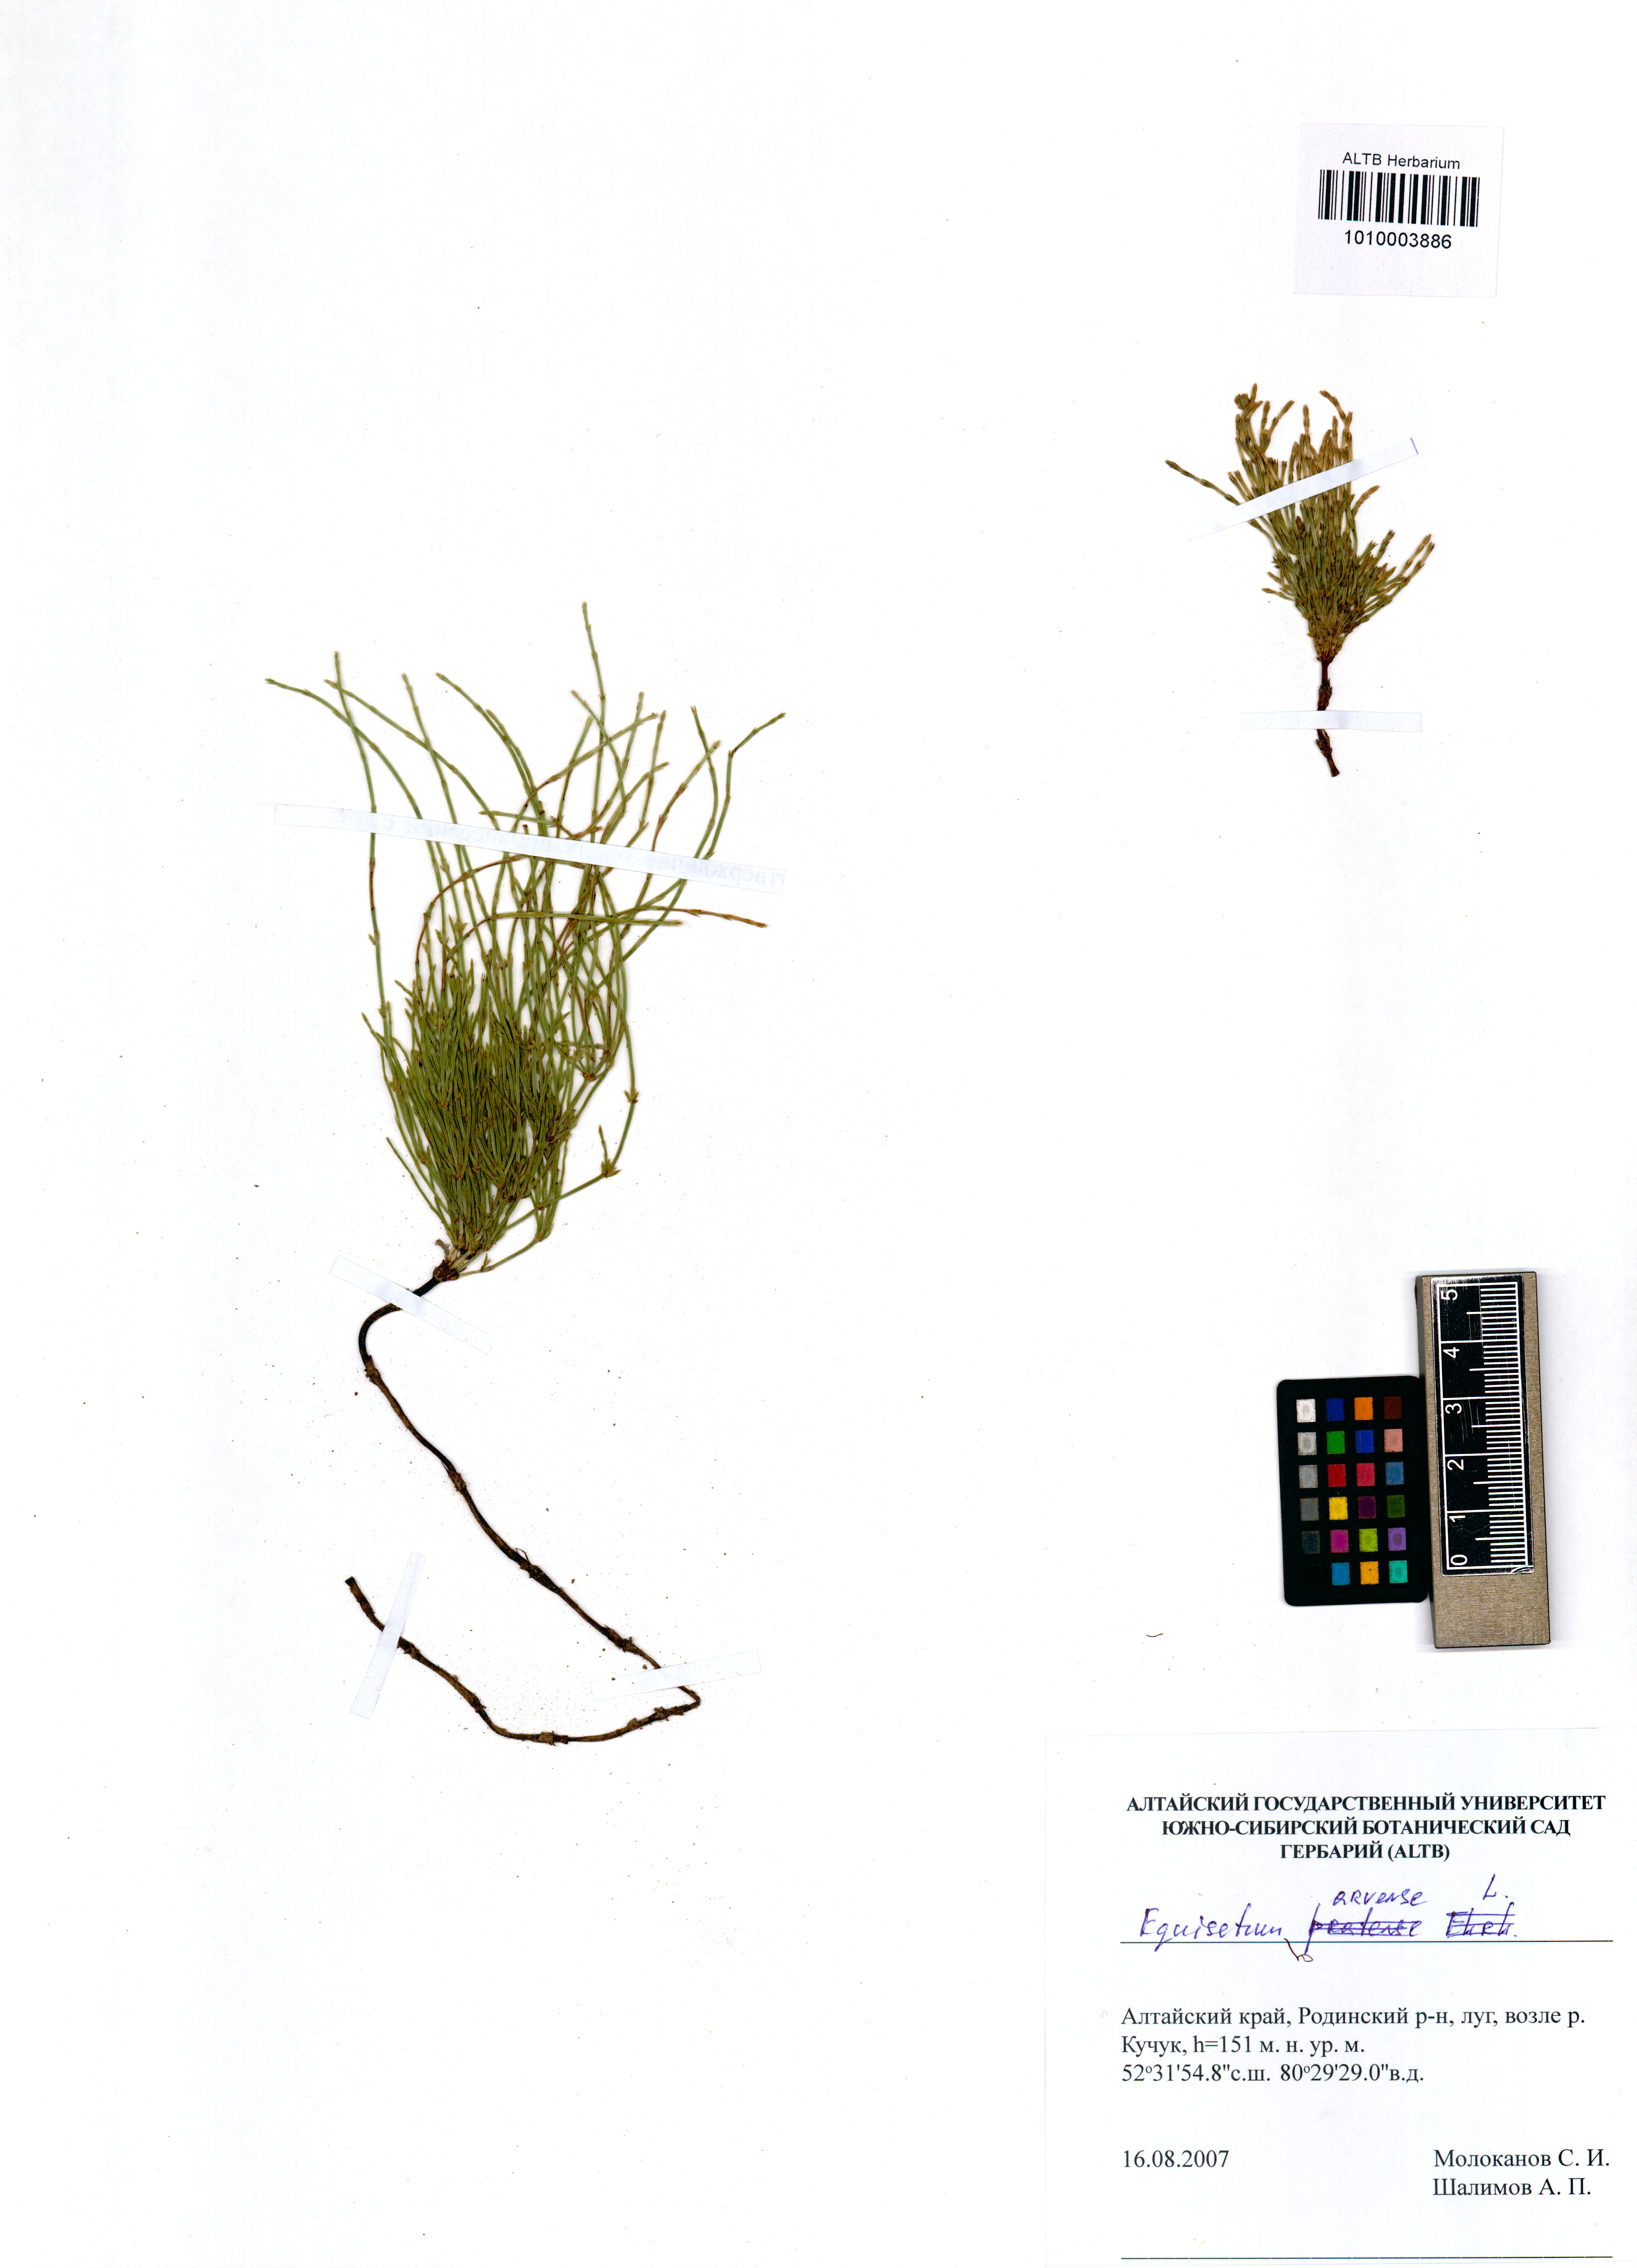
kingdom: Plantae
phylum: Tracheophyta
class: Polypodiopsida
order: Equisetales
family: Equisetaceae
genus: Equisetum
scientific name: Equisetum arvense
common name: Field horsetail
